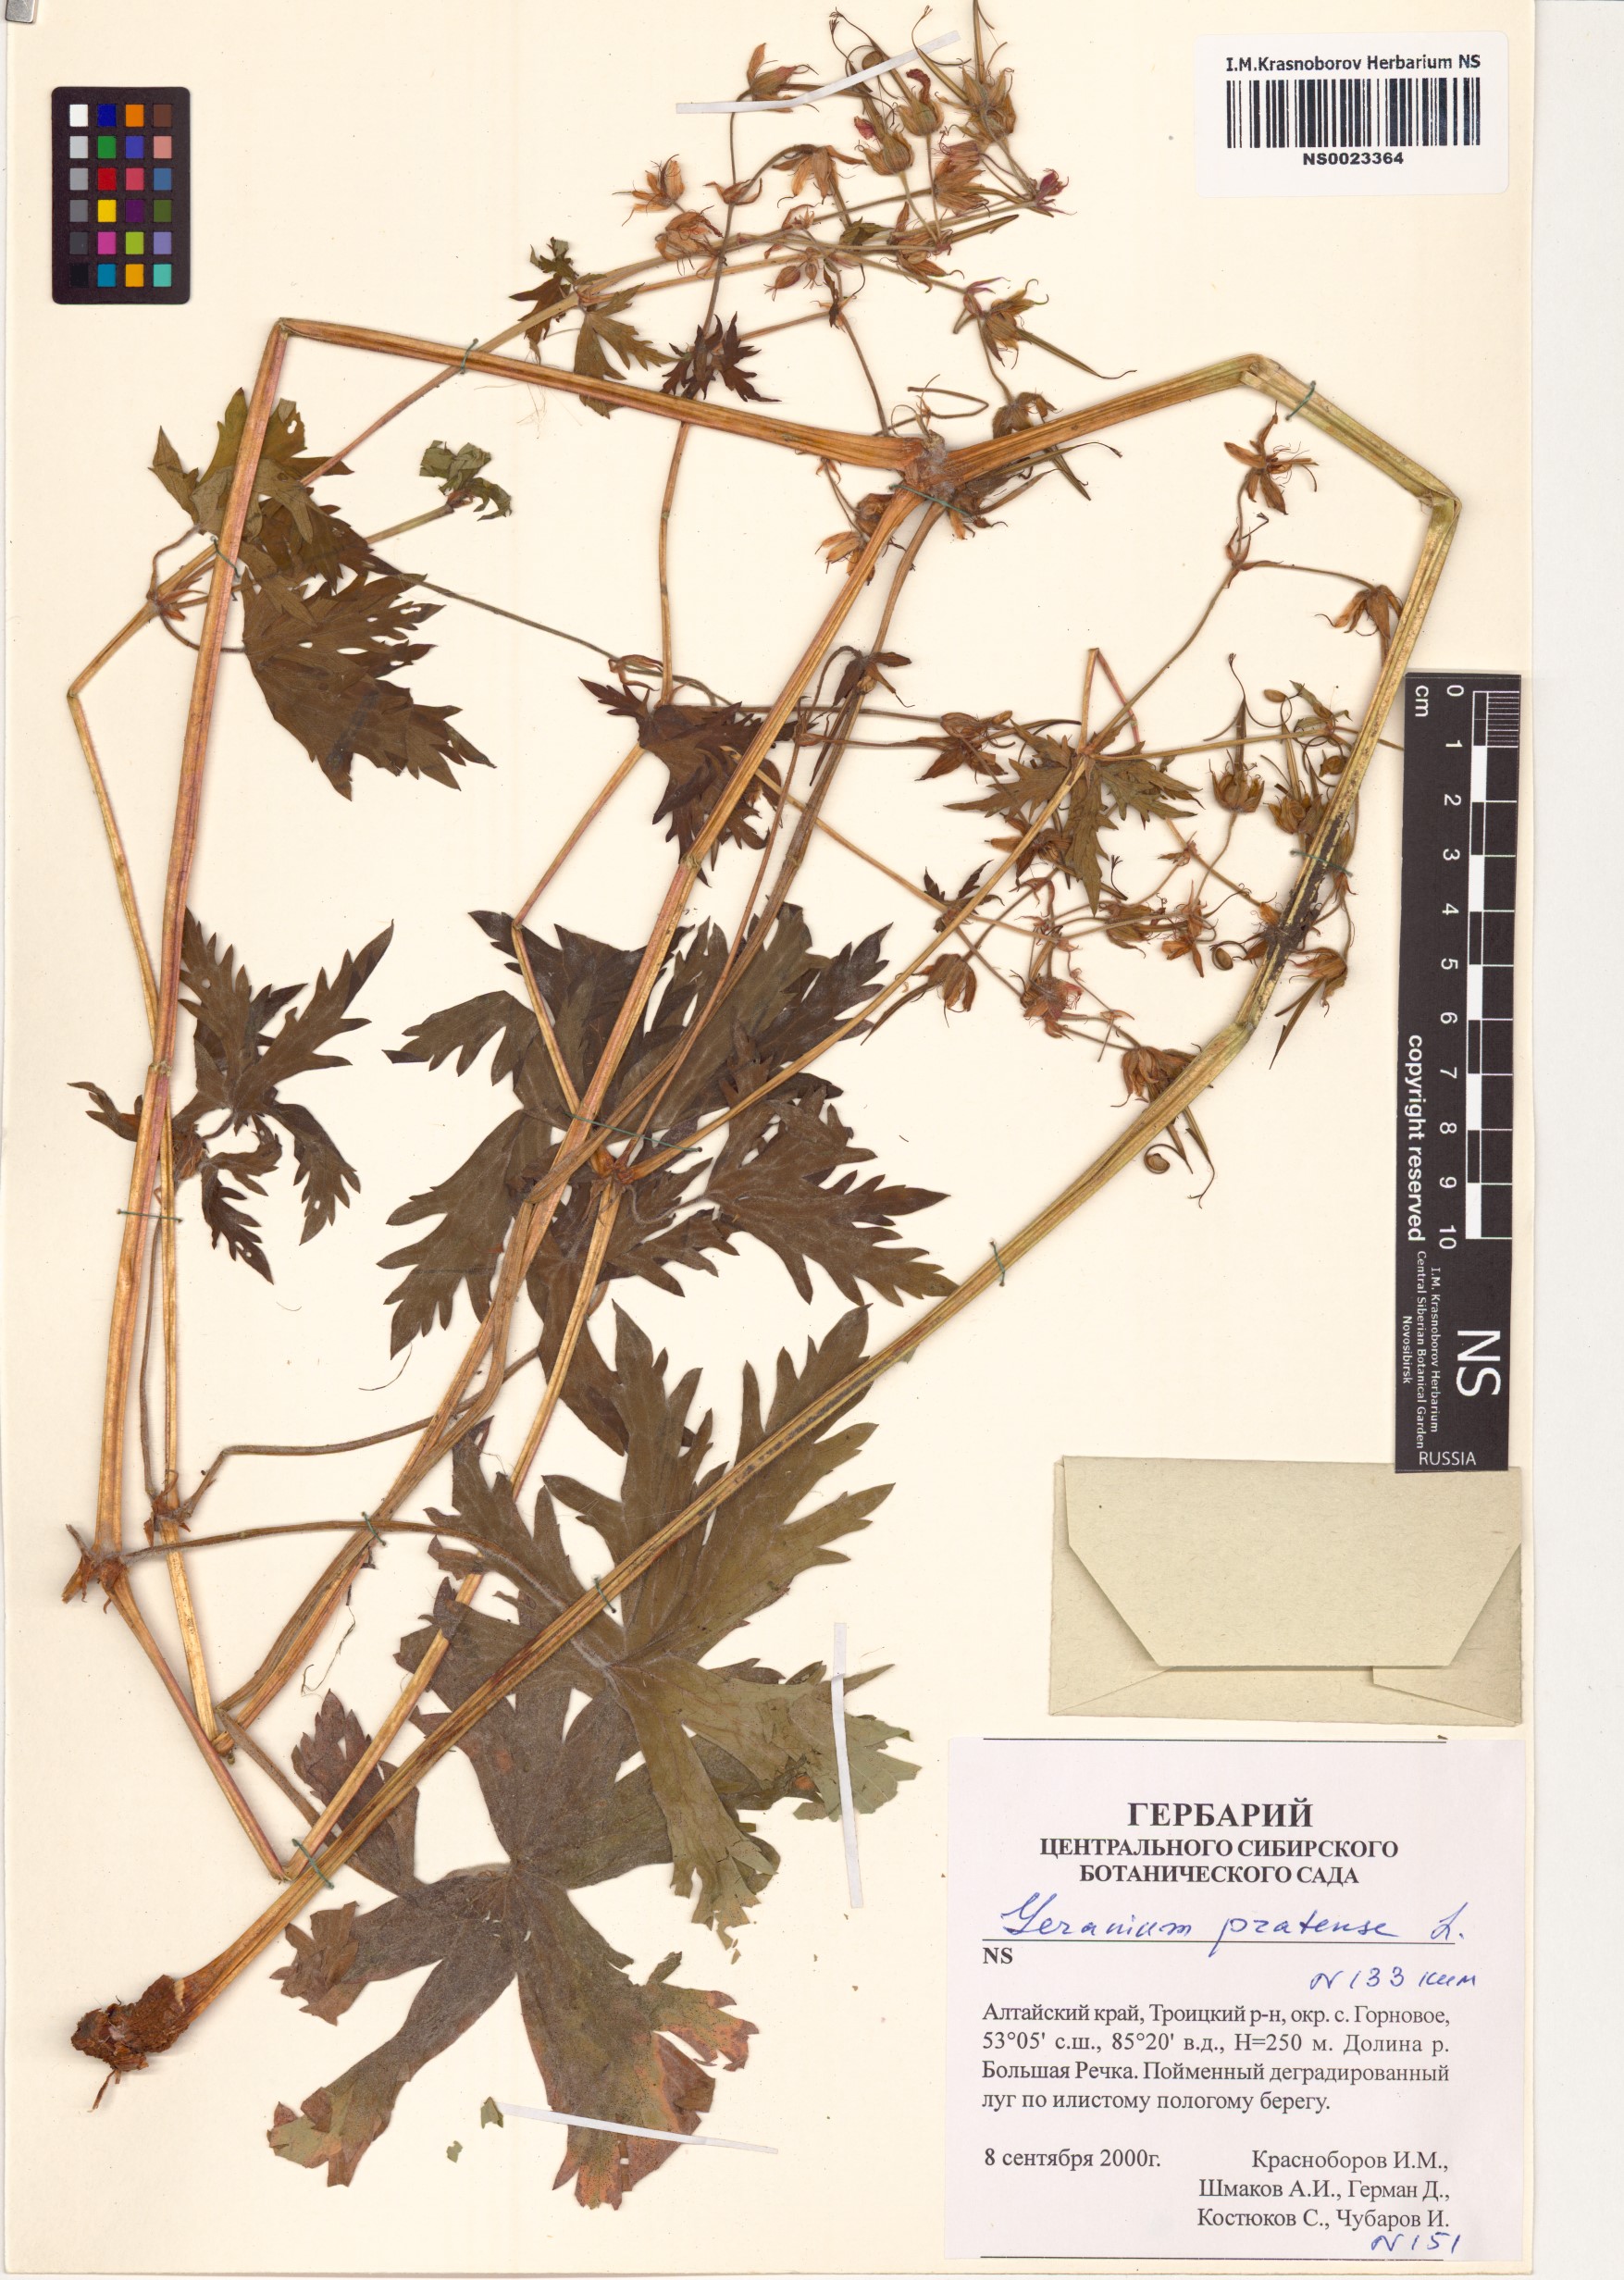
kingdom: Plantae
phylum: Tracheophyta
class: Magnoliopsida
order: Geraniales
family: Geraniaceae
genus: Geranium
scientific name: Geranium pratense
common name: Meadow crane's-bill
